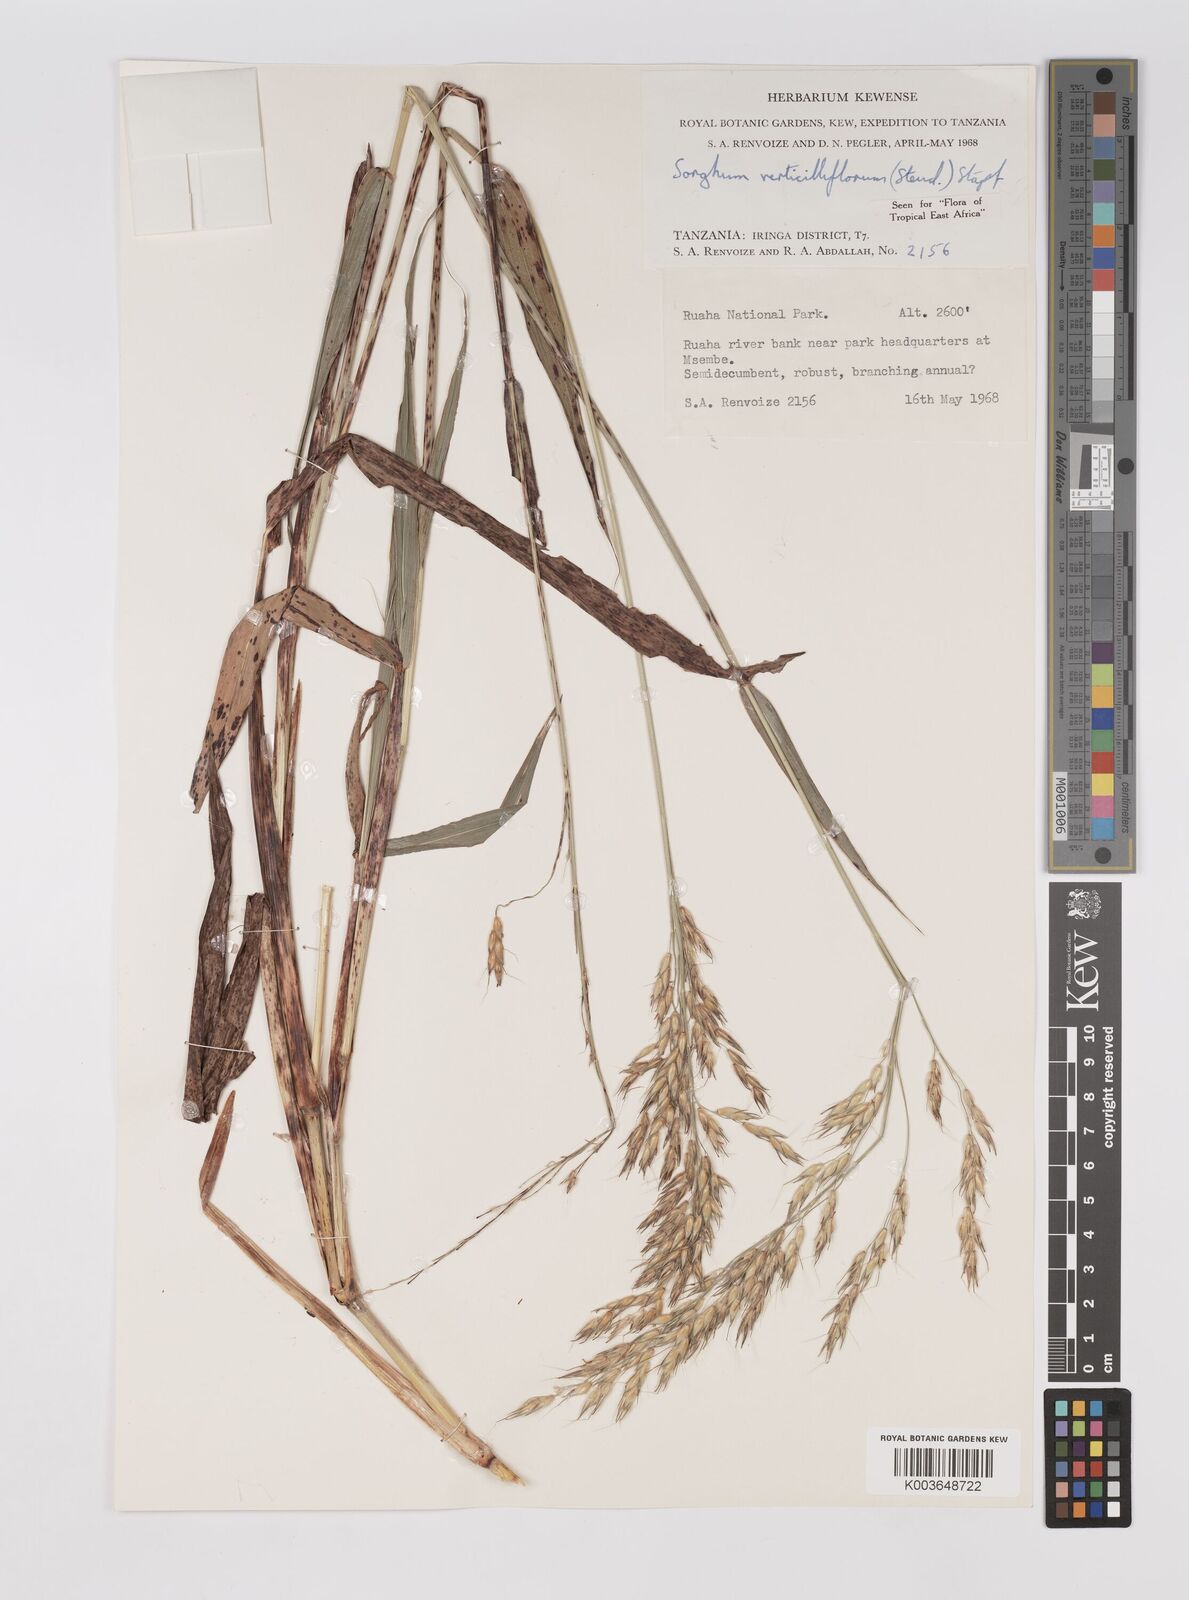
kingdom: Plantae
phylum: Tracheophyta
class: Liliopsida
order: Poales
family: Poaceae
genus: Sorghum
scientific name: Sorghum arundinaceum
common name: Sorghum
